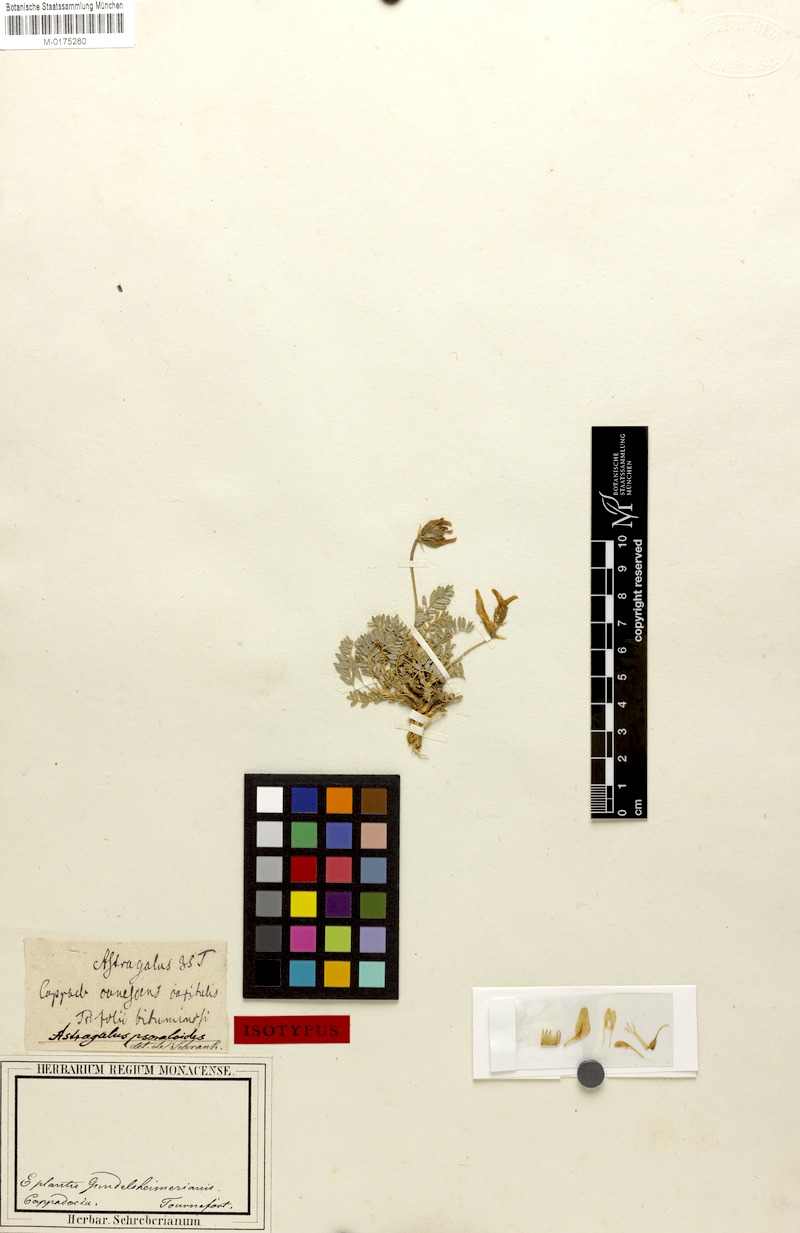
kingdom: Plantae
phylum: Tracheophyta
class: Magnoliopsida
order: Fabales
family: Fabaceae
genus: Astragalus
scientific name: Astragalus psoraloides
